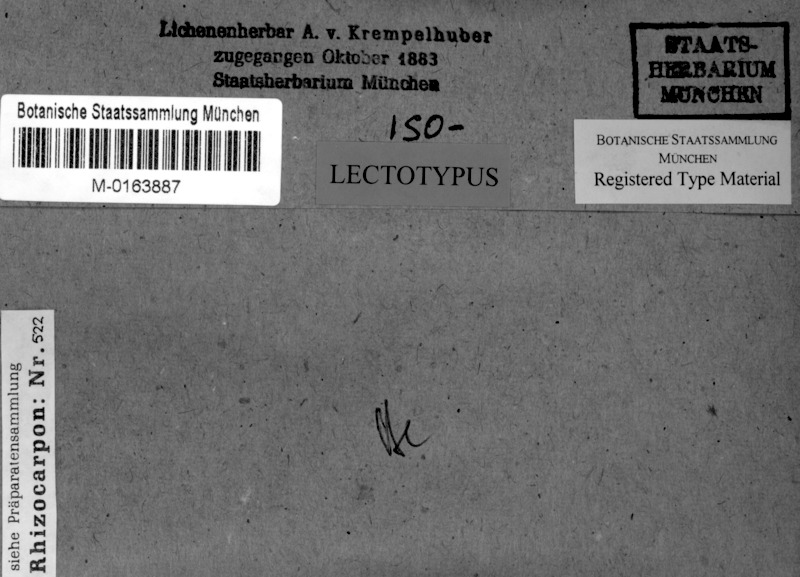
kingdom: Fungi
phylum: Ascomycota
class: Lecanoromycetes
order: Rhizocarpales
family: Rhizocarpaceae
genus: Rhizocarpon
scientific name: Rhizocarpon disporum
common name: Single-spored map lichen
